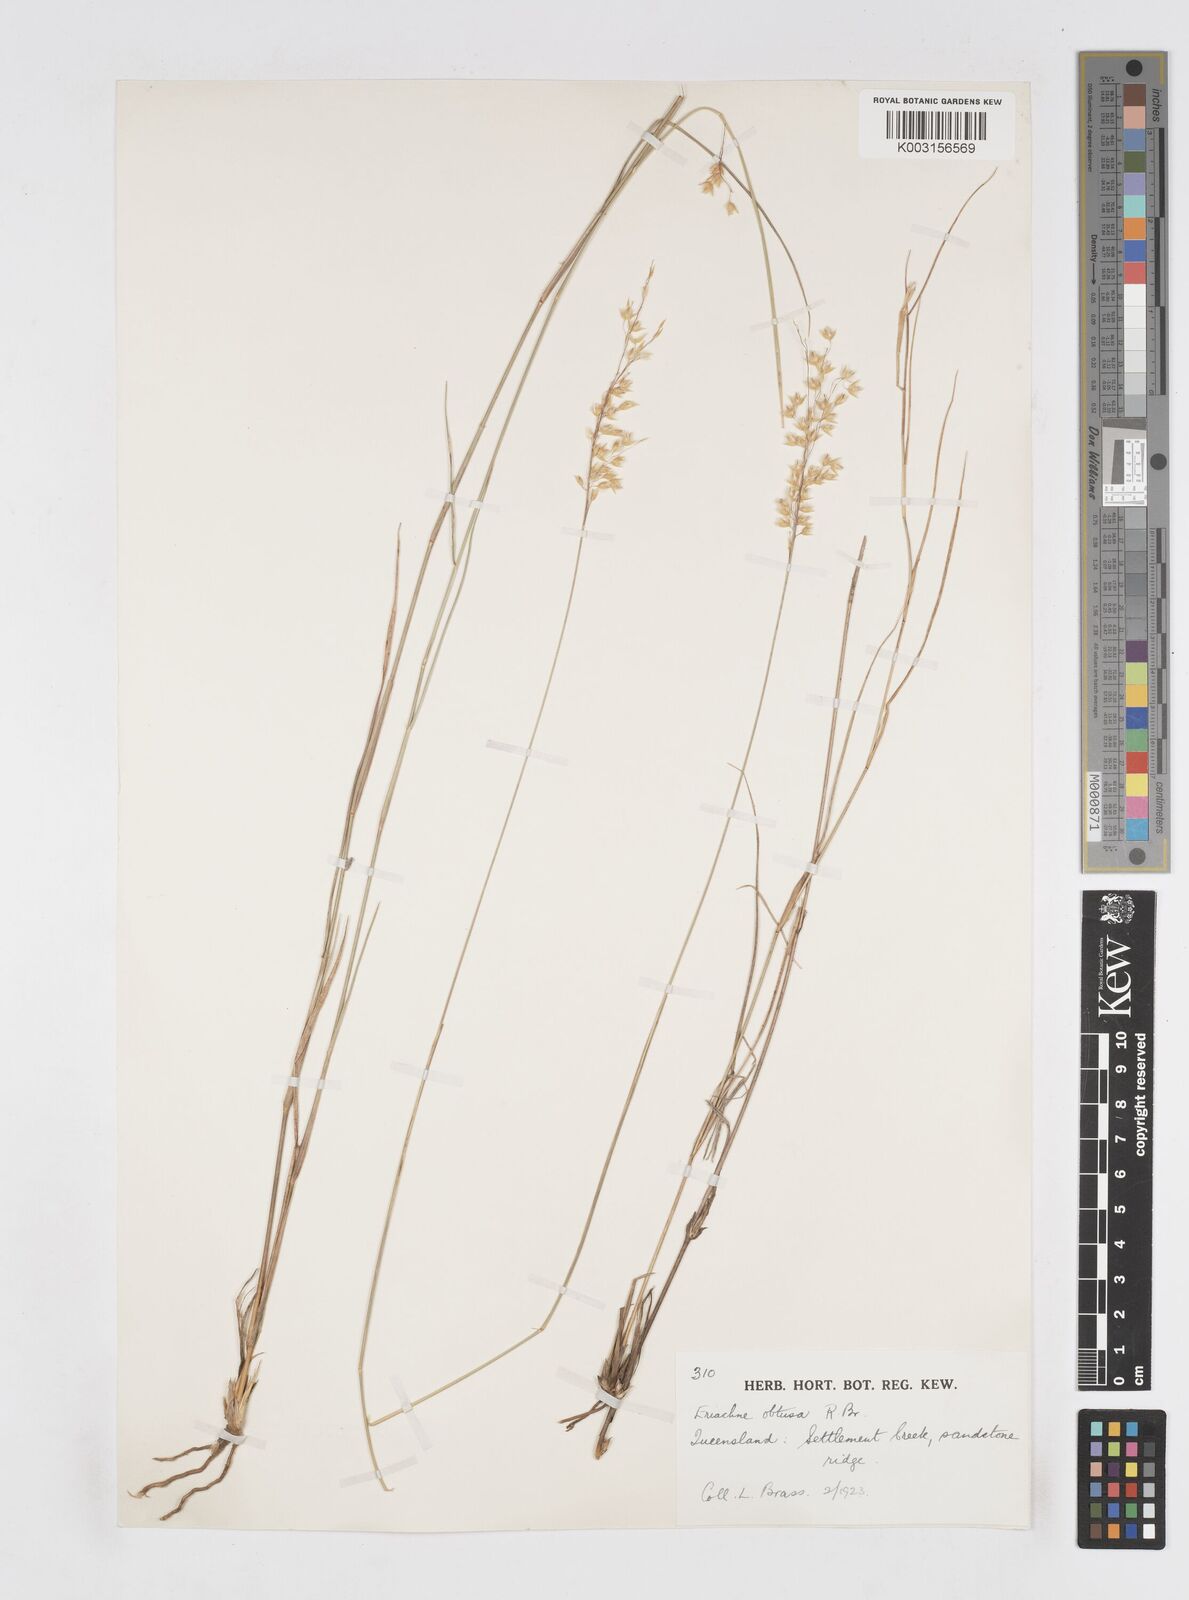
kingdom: Plantae
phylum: Tracheophyta
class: Liliopsida
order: Poales
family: Poaceae
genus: Eriachne
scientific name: Eriachne obtusa
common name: Northern wanderrie grass
